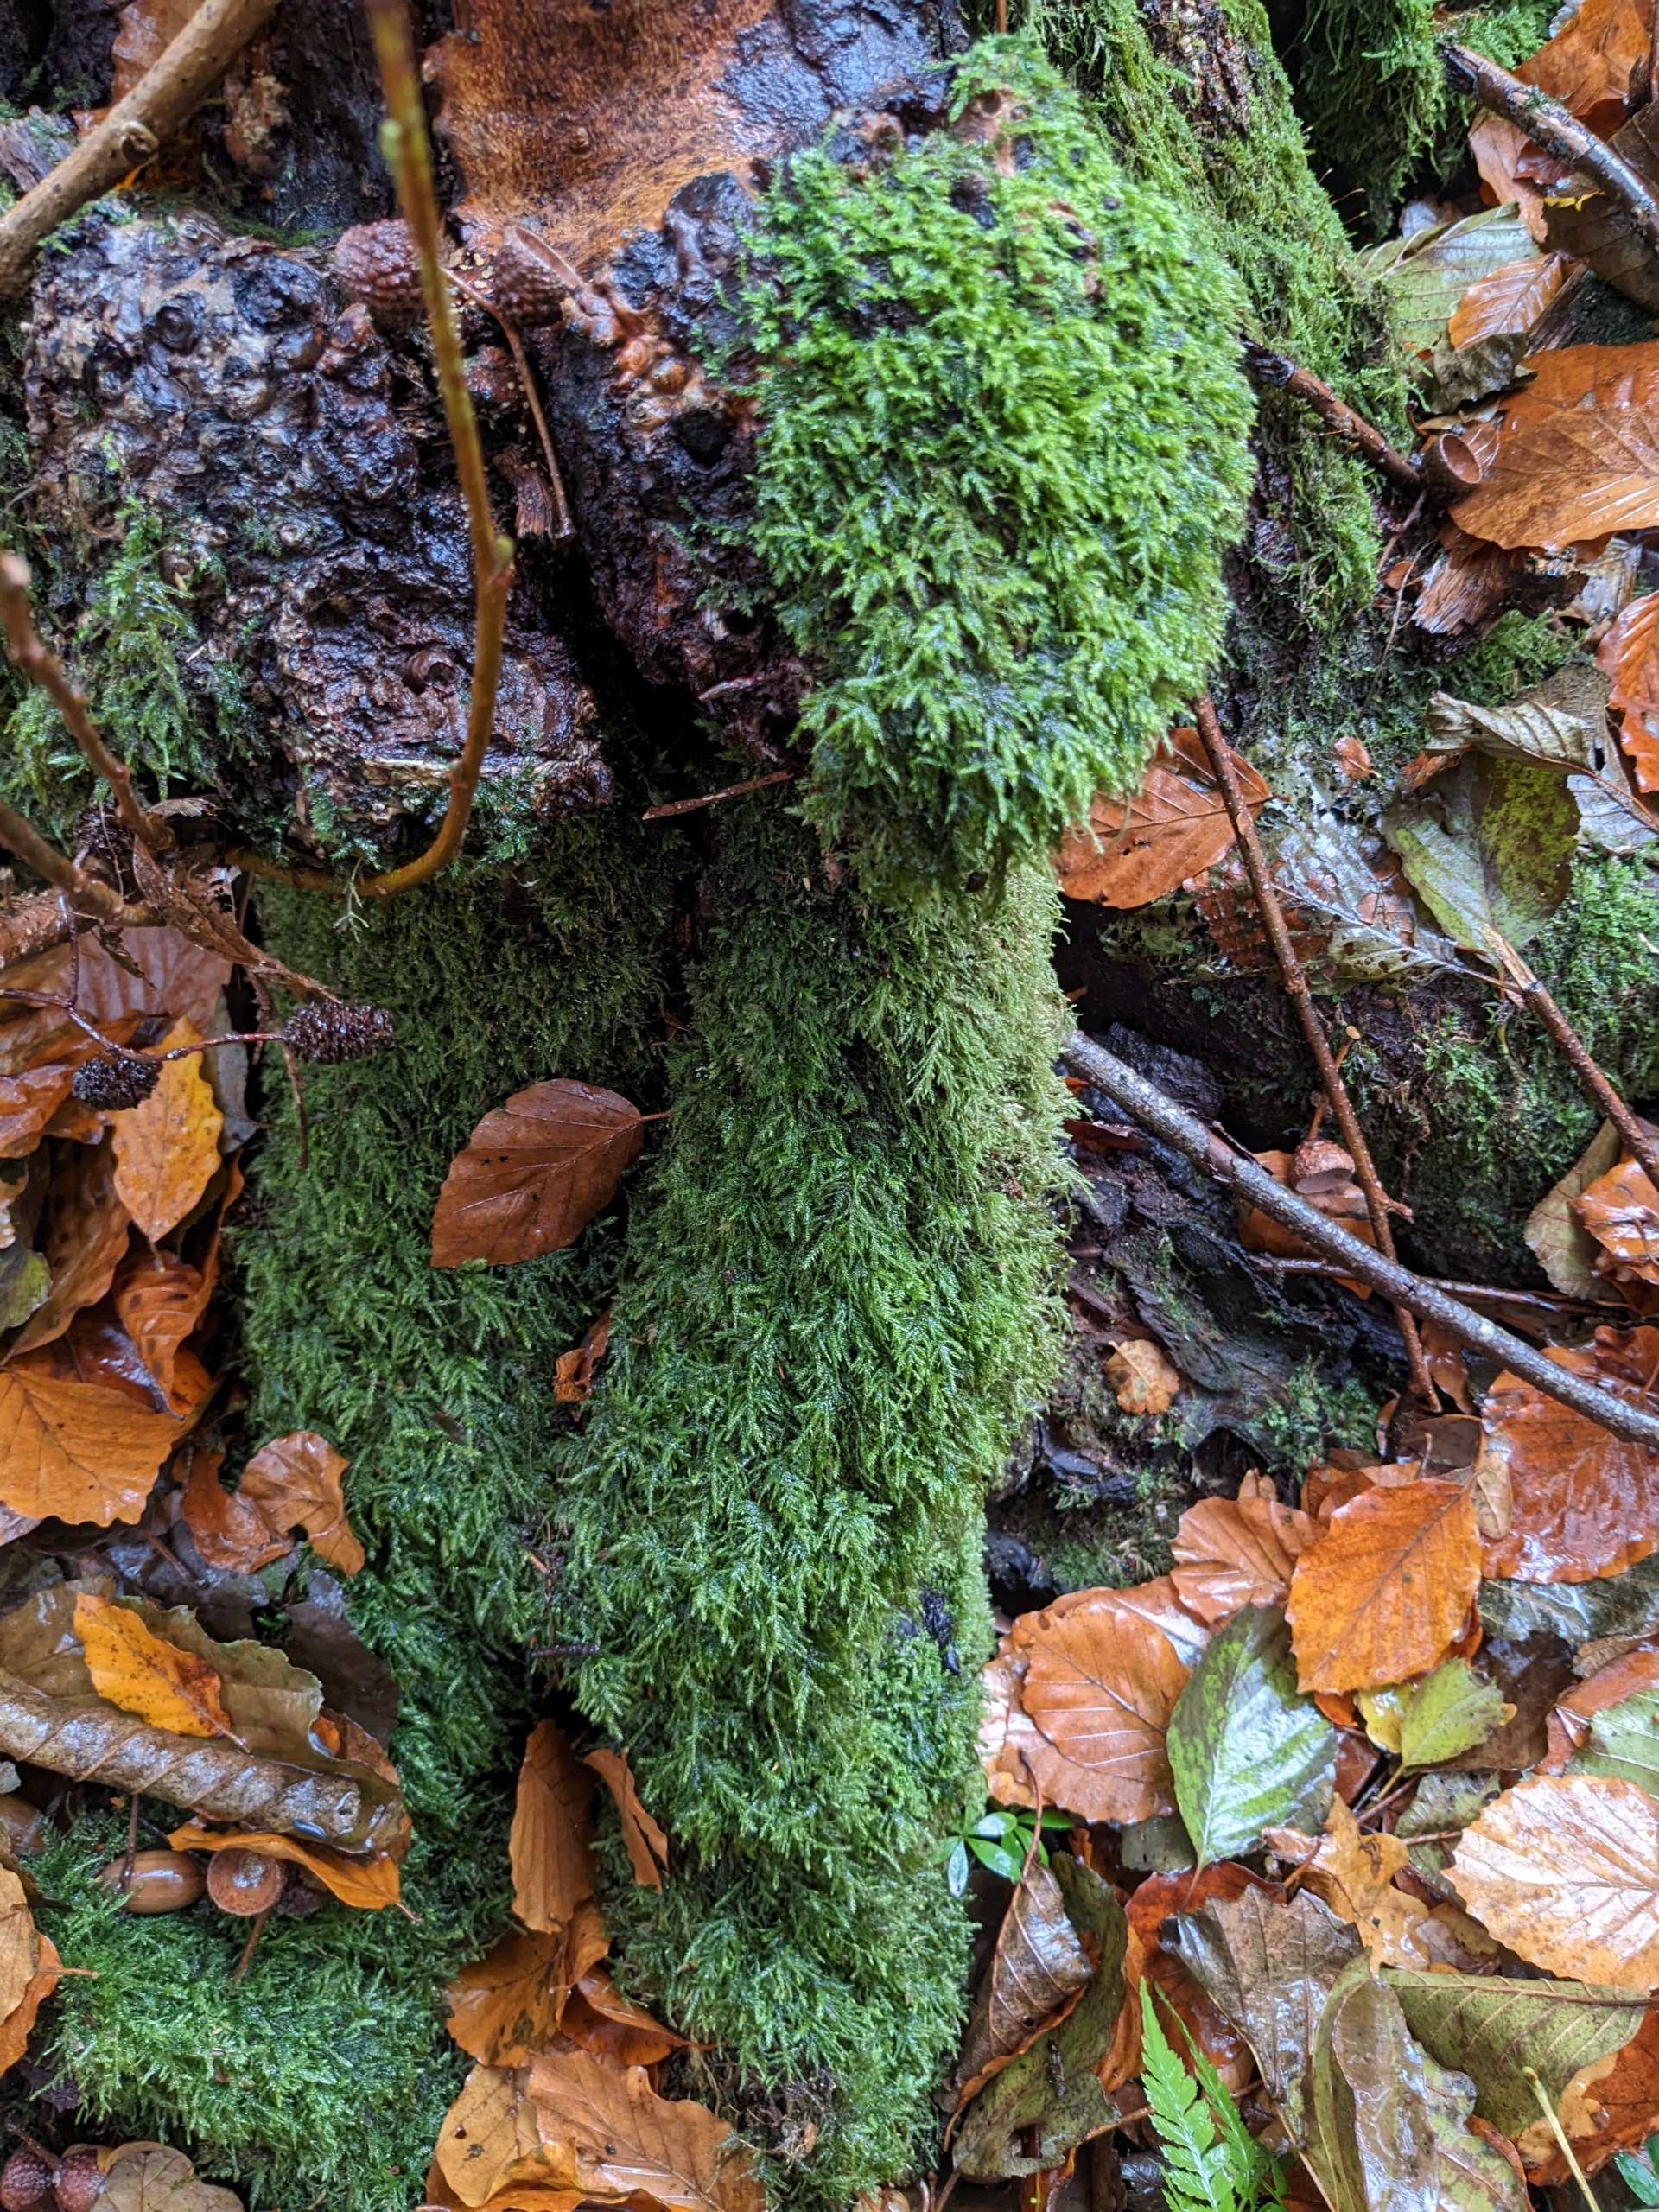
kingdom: Plantae
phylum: Bryophyta
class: Bryopsida
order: Hypnales
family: Lembophyllaceae
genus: Pseudisothecium
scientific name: Pseudisothecium myosuroides
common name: Slank stammemos
